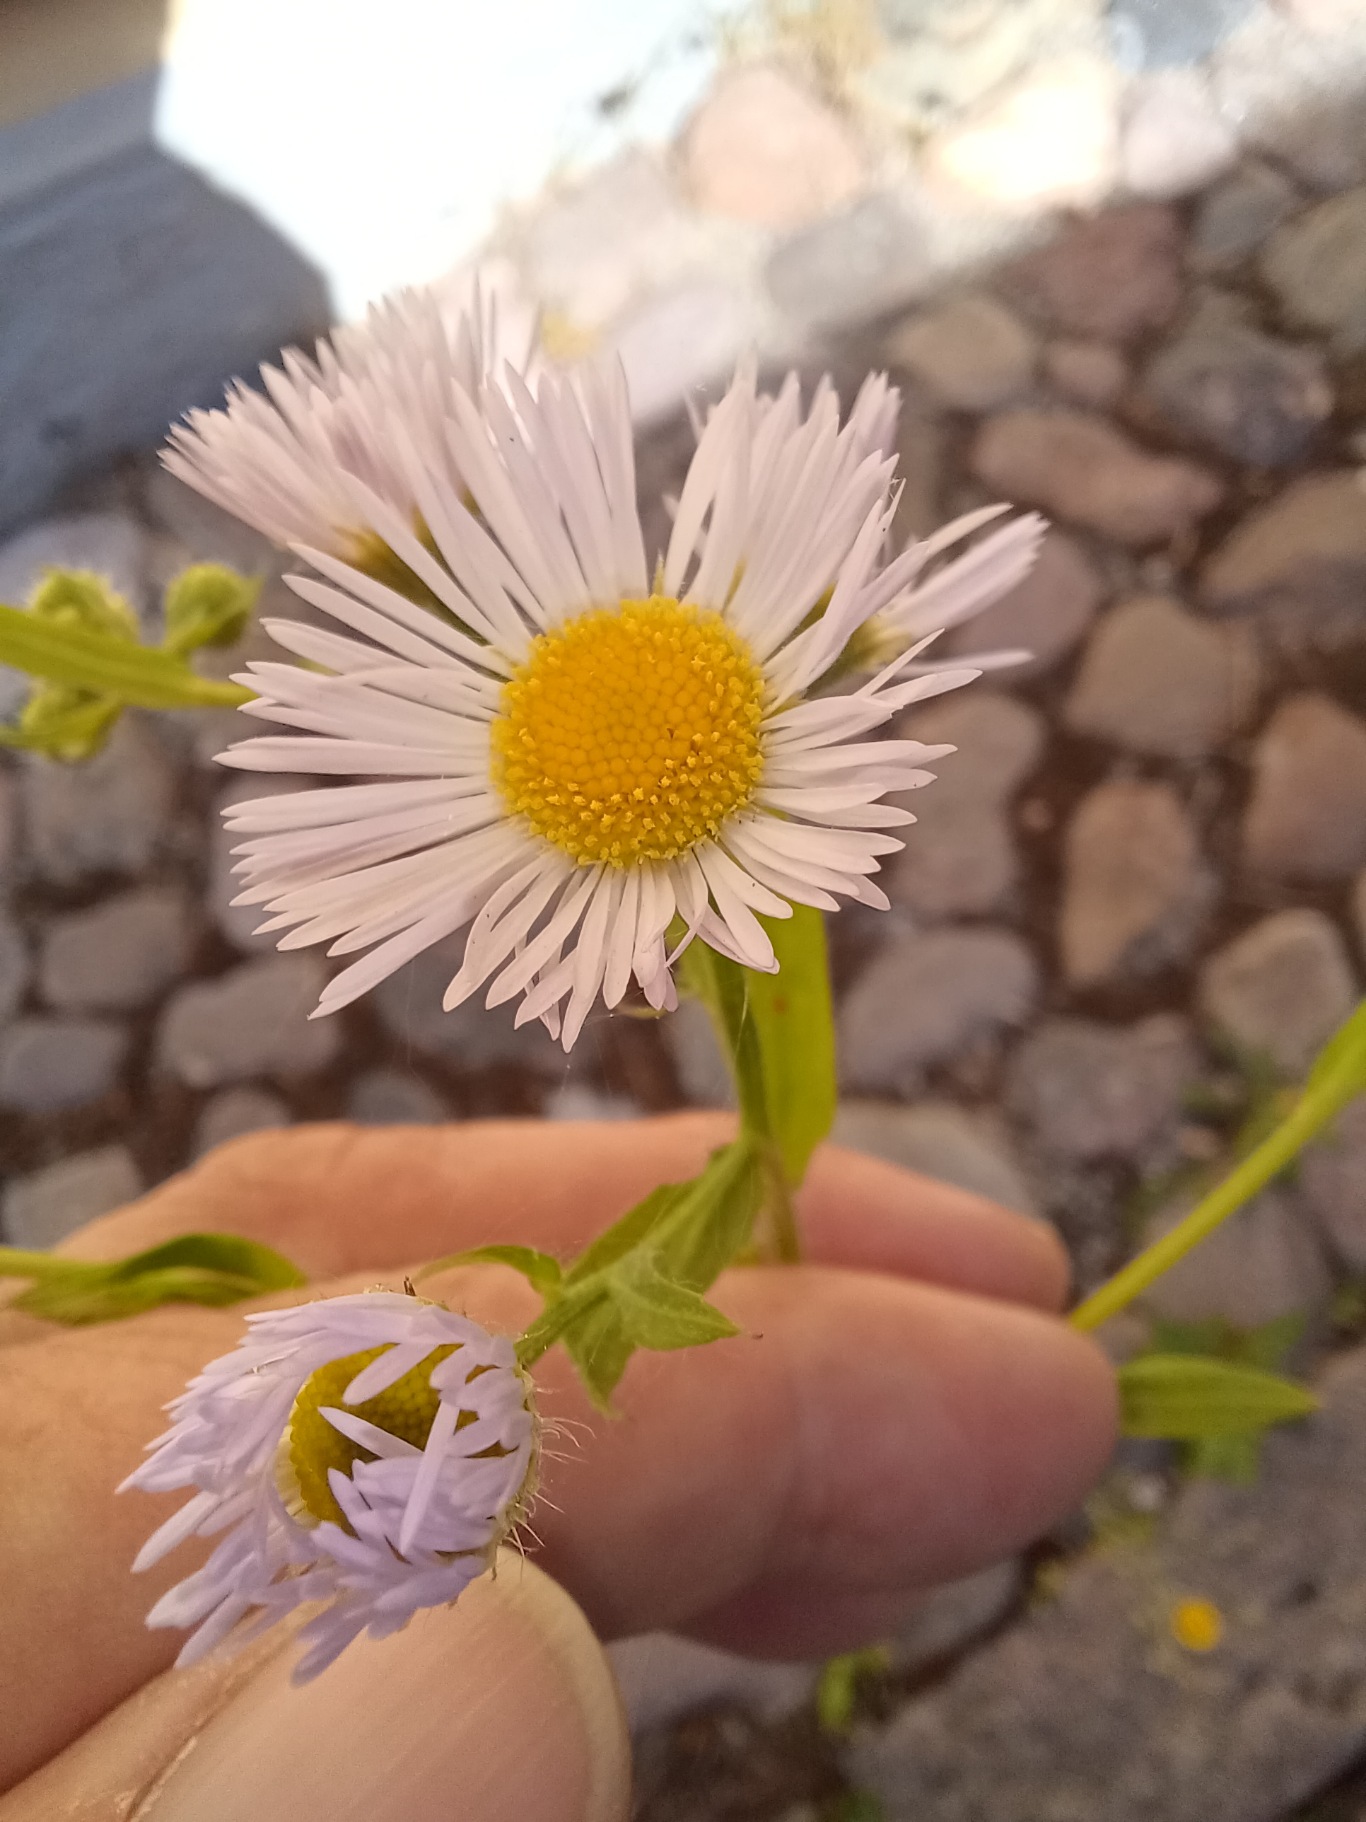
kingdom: Plantae
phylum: Tracheophyta
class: Magnoliopsida
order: Asterales
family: Asteraceae
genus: Erigeron
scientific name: Erigeron annuus
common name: Smalstråle
